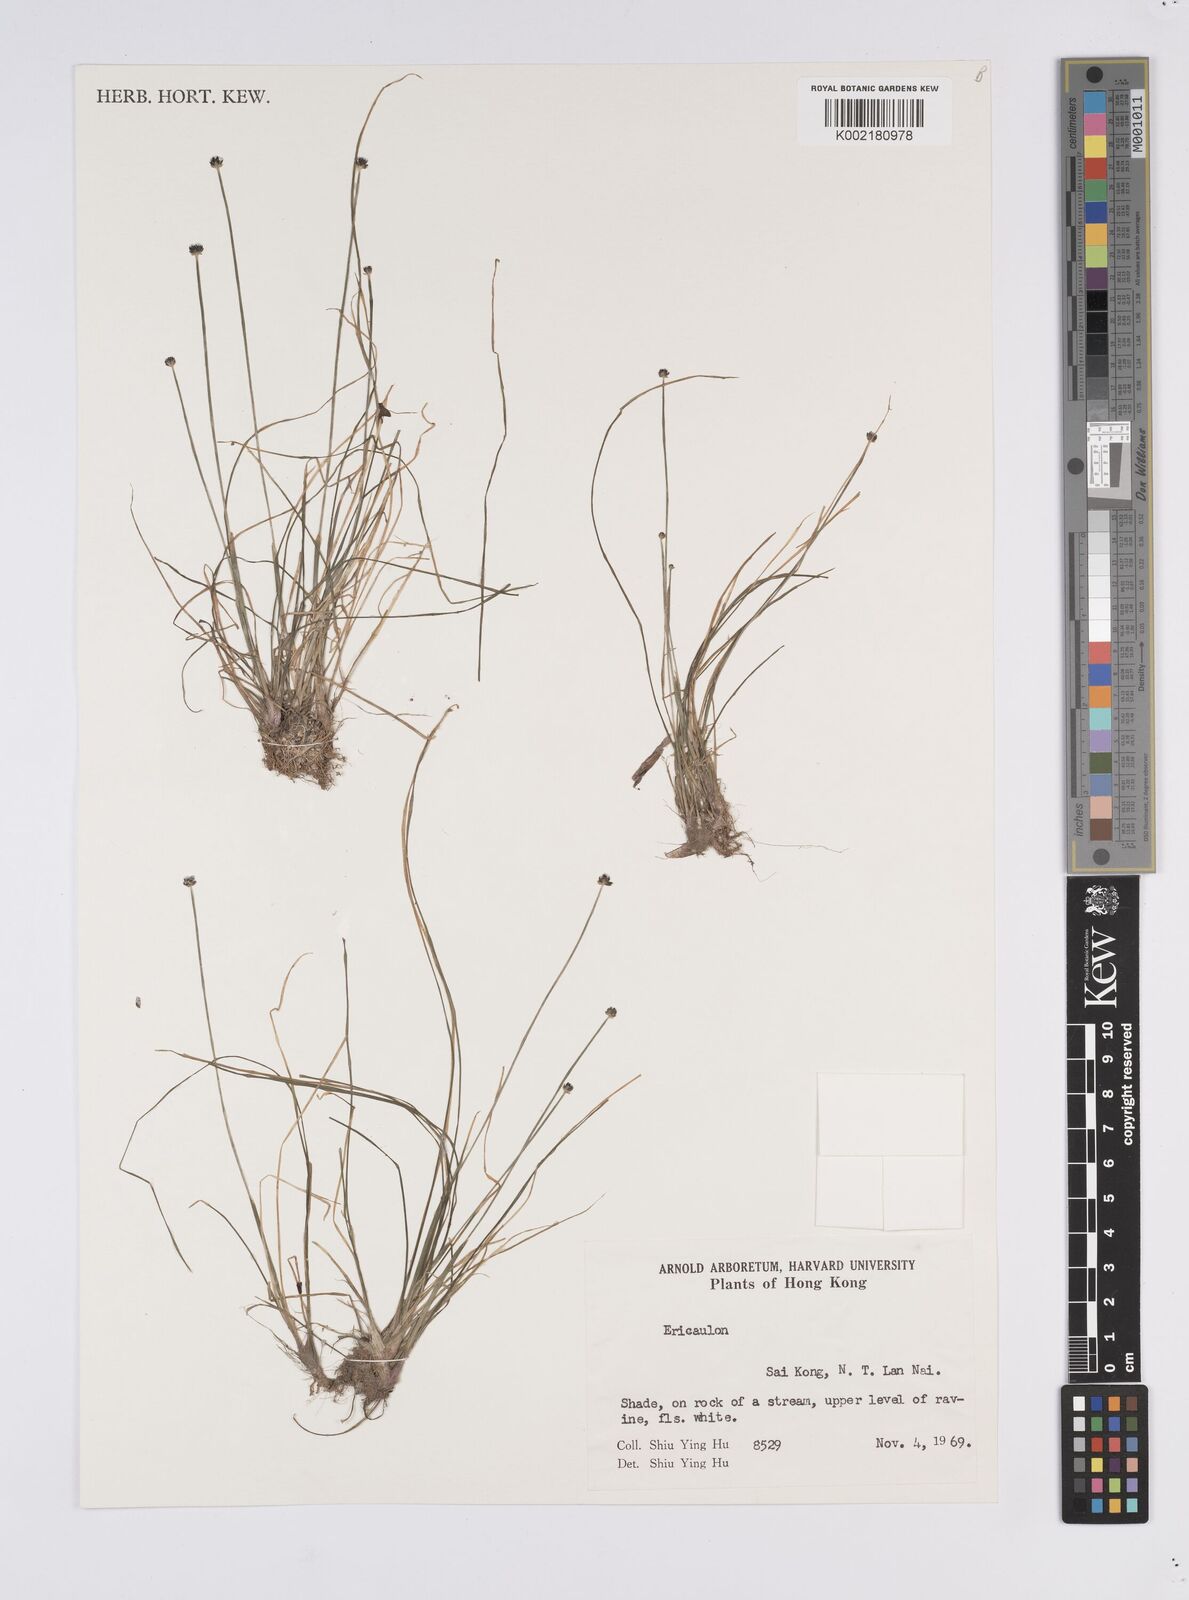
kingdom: Plantae
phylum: Tracheophyta
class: Liliopsida
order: Poales
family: Eriocaulaceae
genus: Eriocaulon
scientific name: Eriocaulon setaceum
